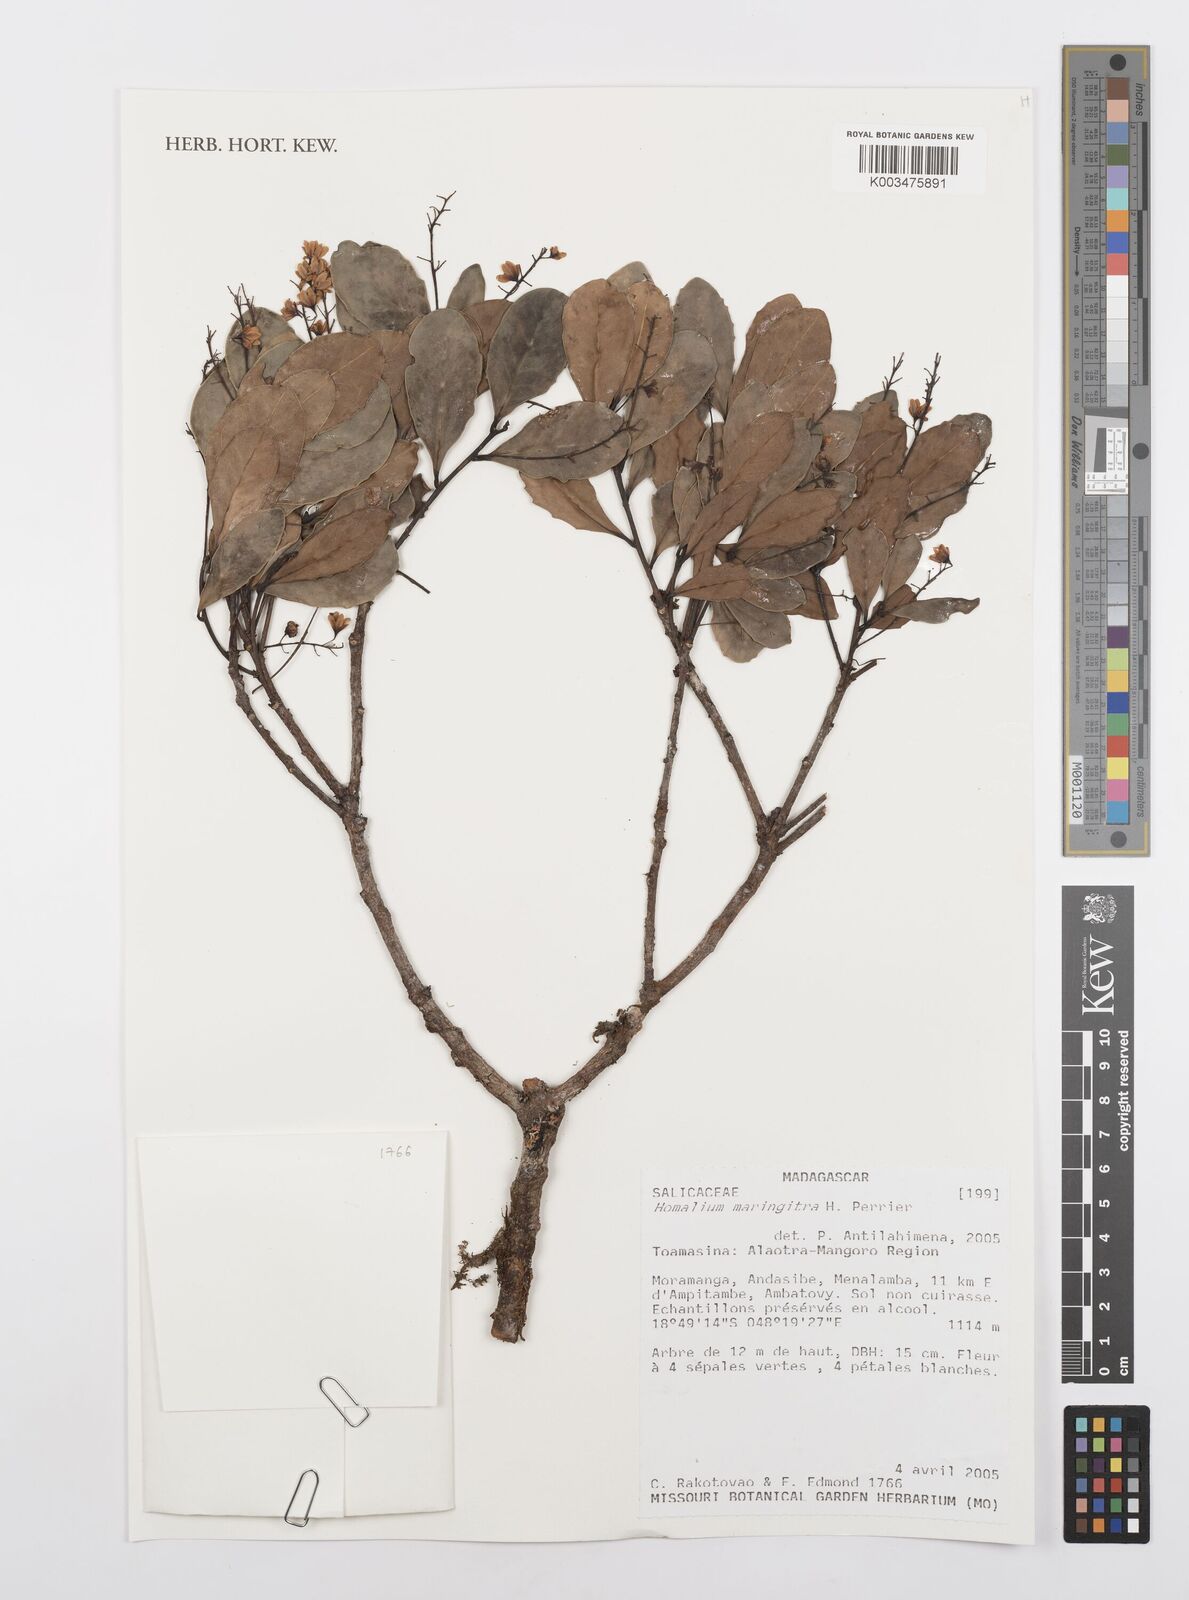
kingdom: Plantae
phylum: Tracheophyta
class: Magnoliopsida
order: Malpighiales
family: Salicaceae
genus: Homalium
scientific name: Homalium maringitra
